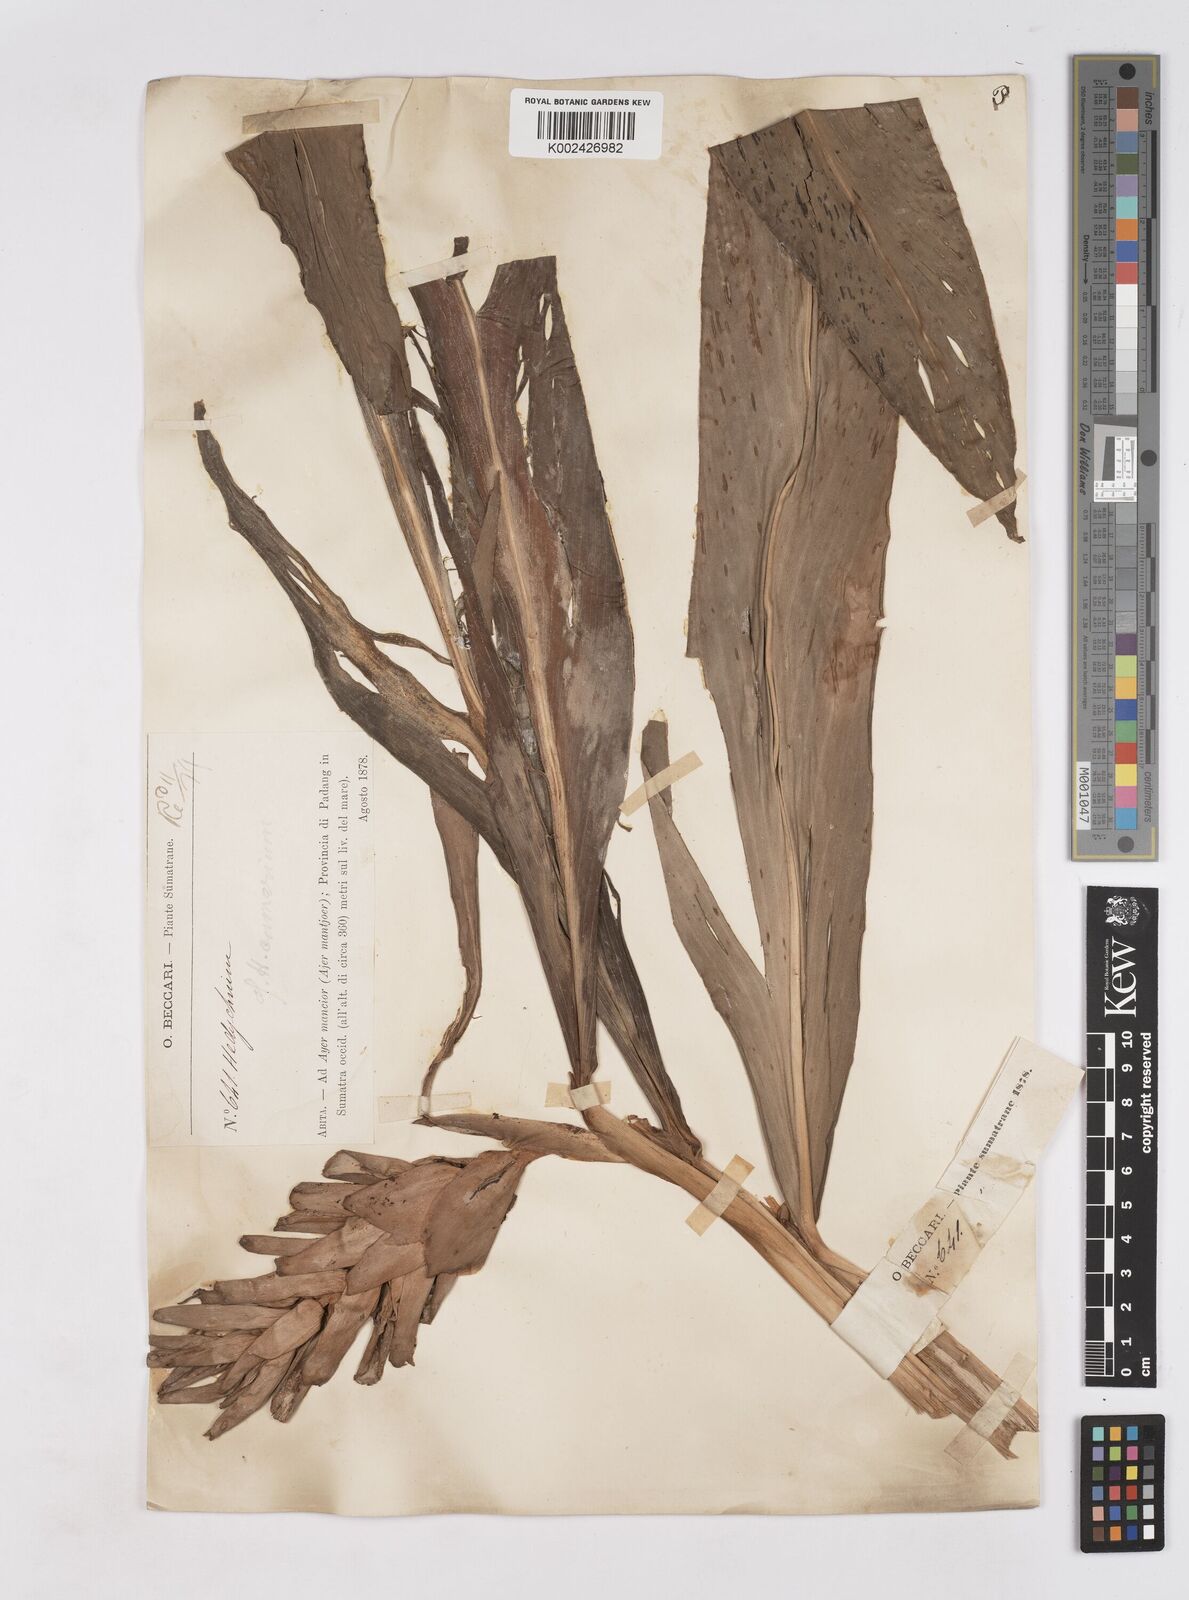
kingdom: Plantae
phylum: Tracheophyta
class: Liliopsida
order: Zingiberales
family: Zingiberaceae
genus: Hedychium
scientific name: Hedychium coronarium
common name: White garland-lily
